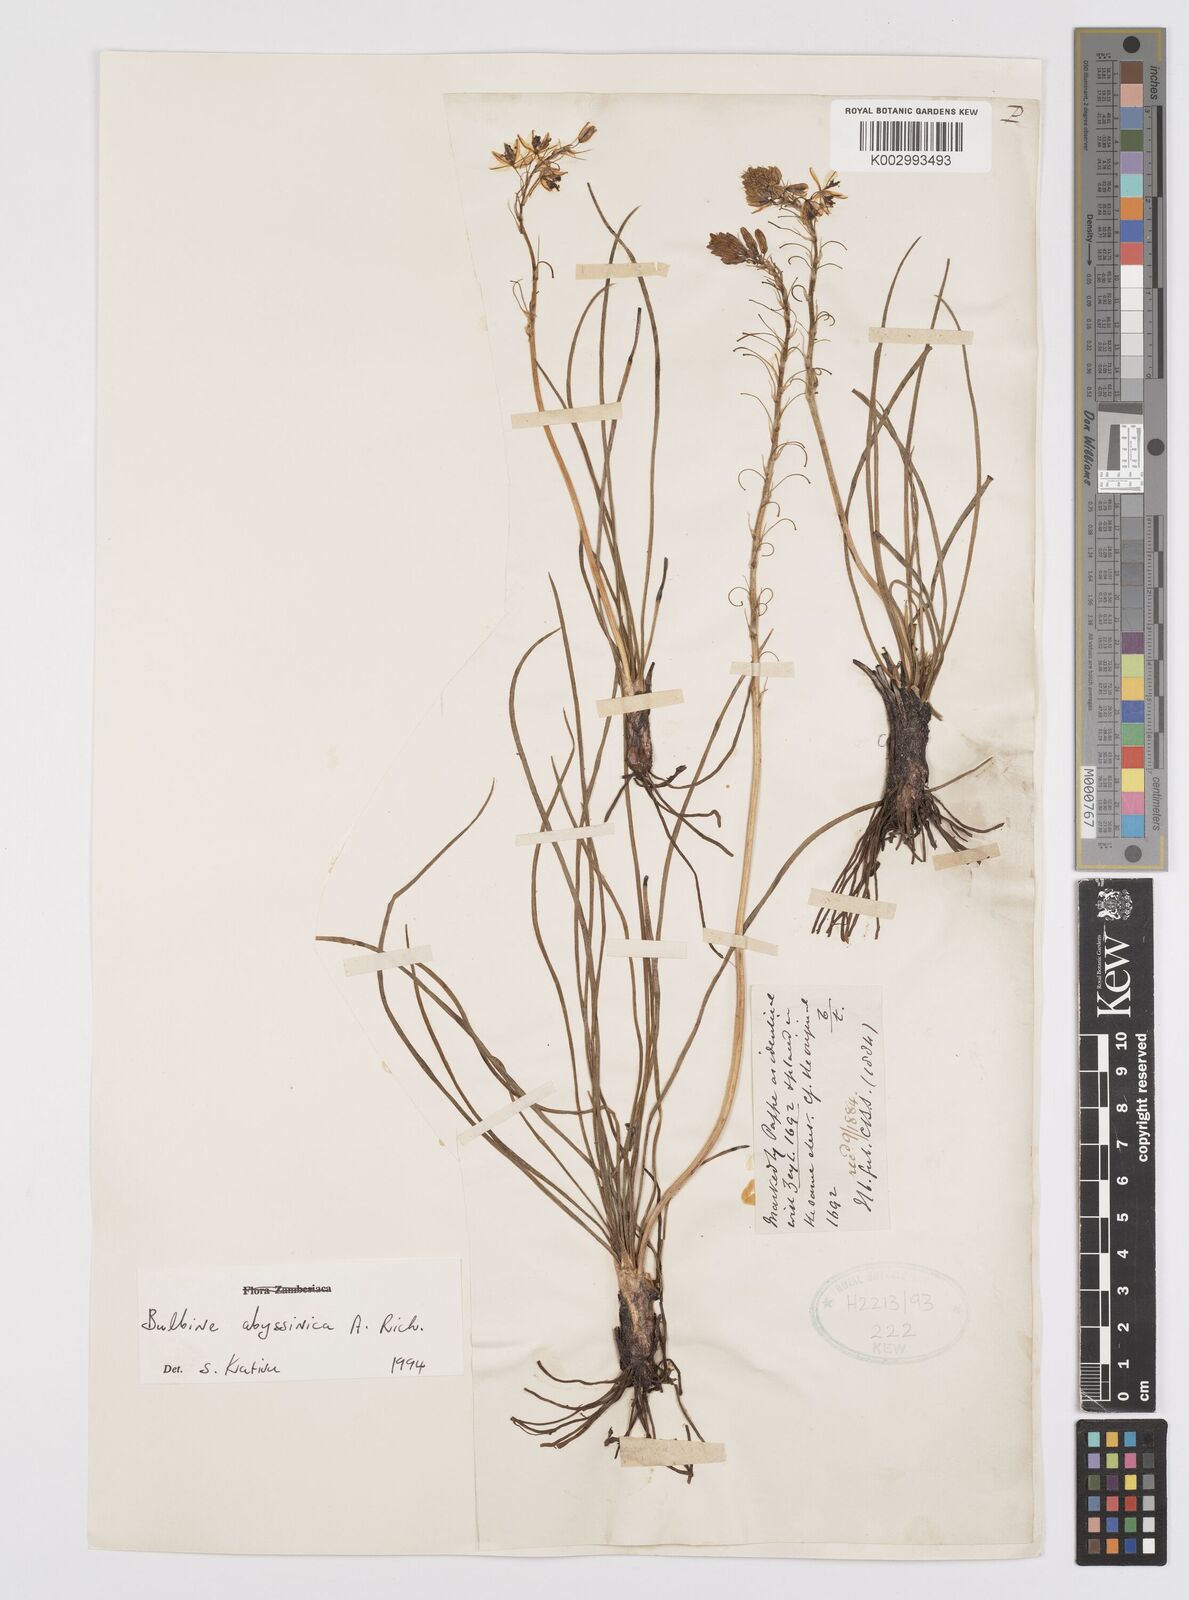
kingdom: Plantae
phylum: Tracheophyta
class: Liliopsida
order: Asparagales
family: Asphodelaceae
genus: Bulbine
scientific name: Bulbine abyssinica
